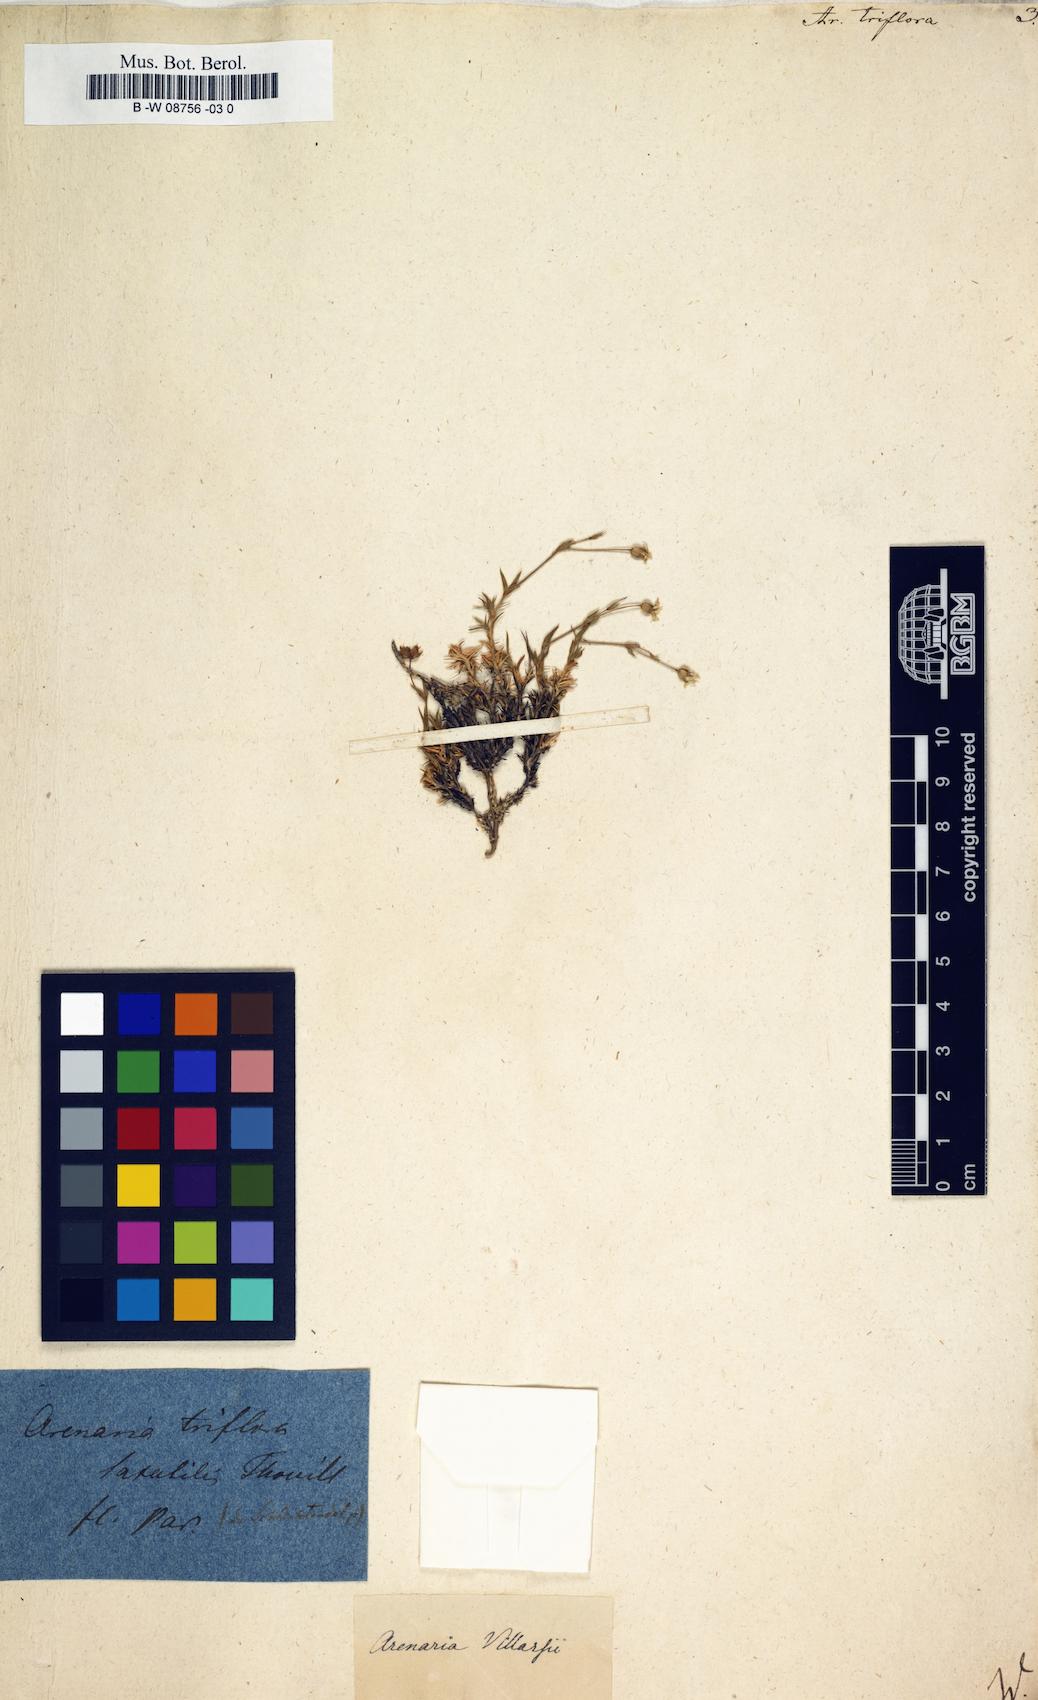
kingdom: Plantae
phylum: Tracheophyta
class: Magnoliopsida
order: Caryophyllales
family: Caryophyllaceae
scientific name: Caryophyllaceae
